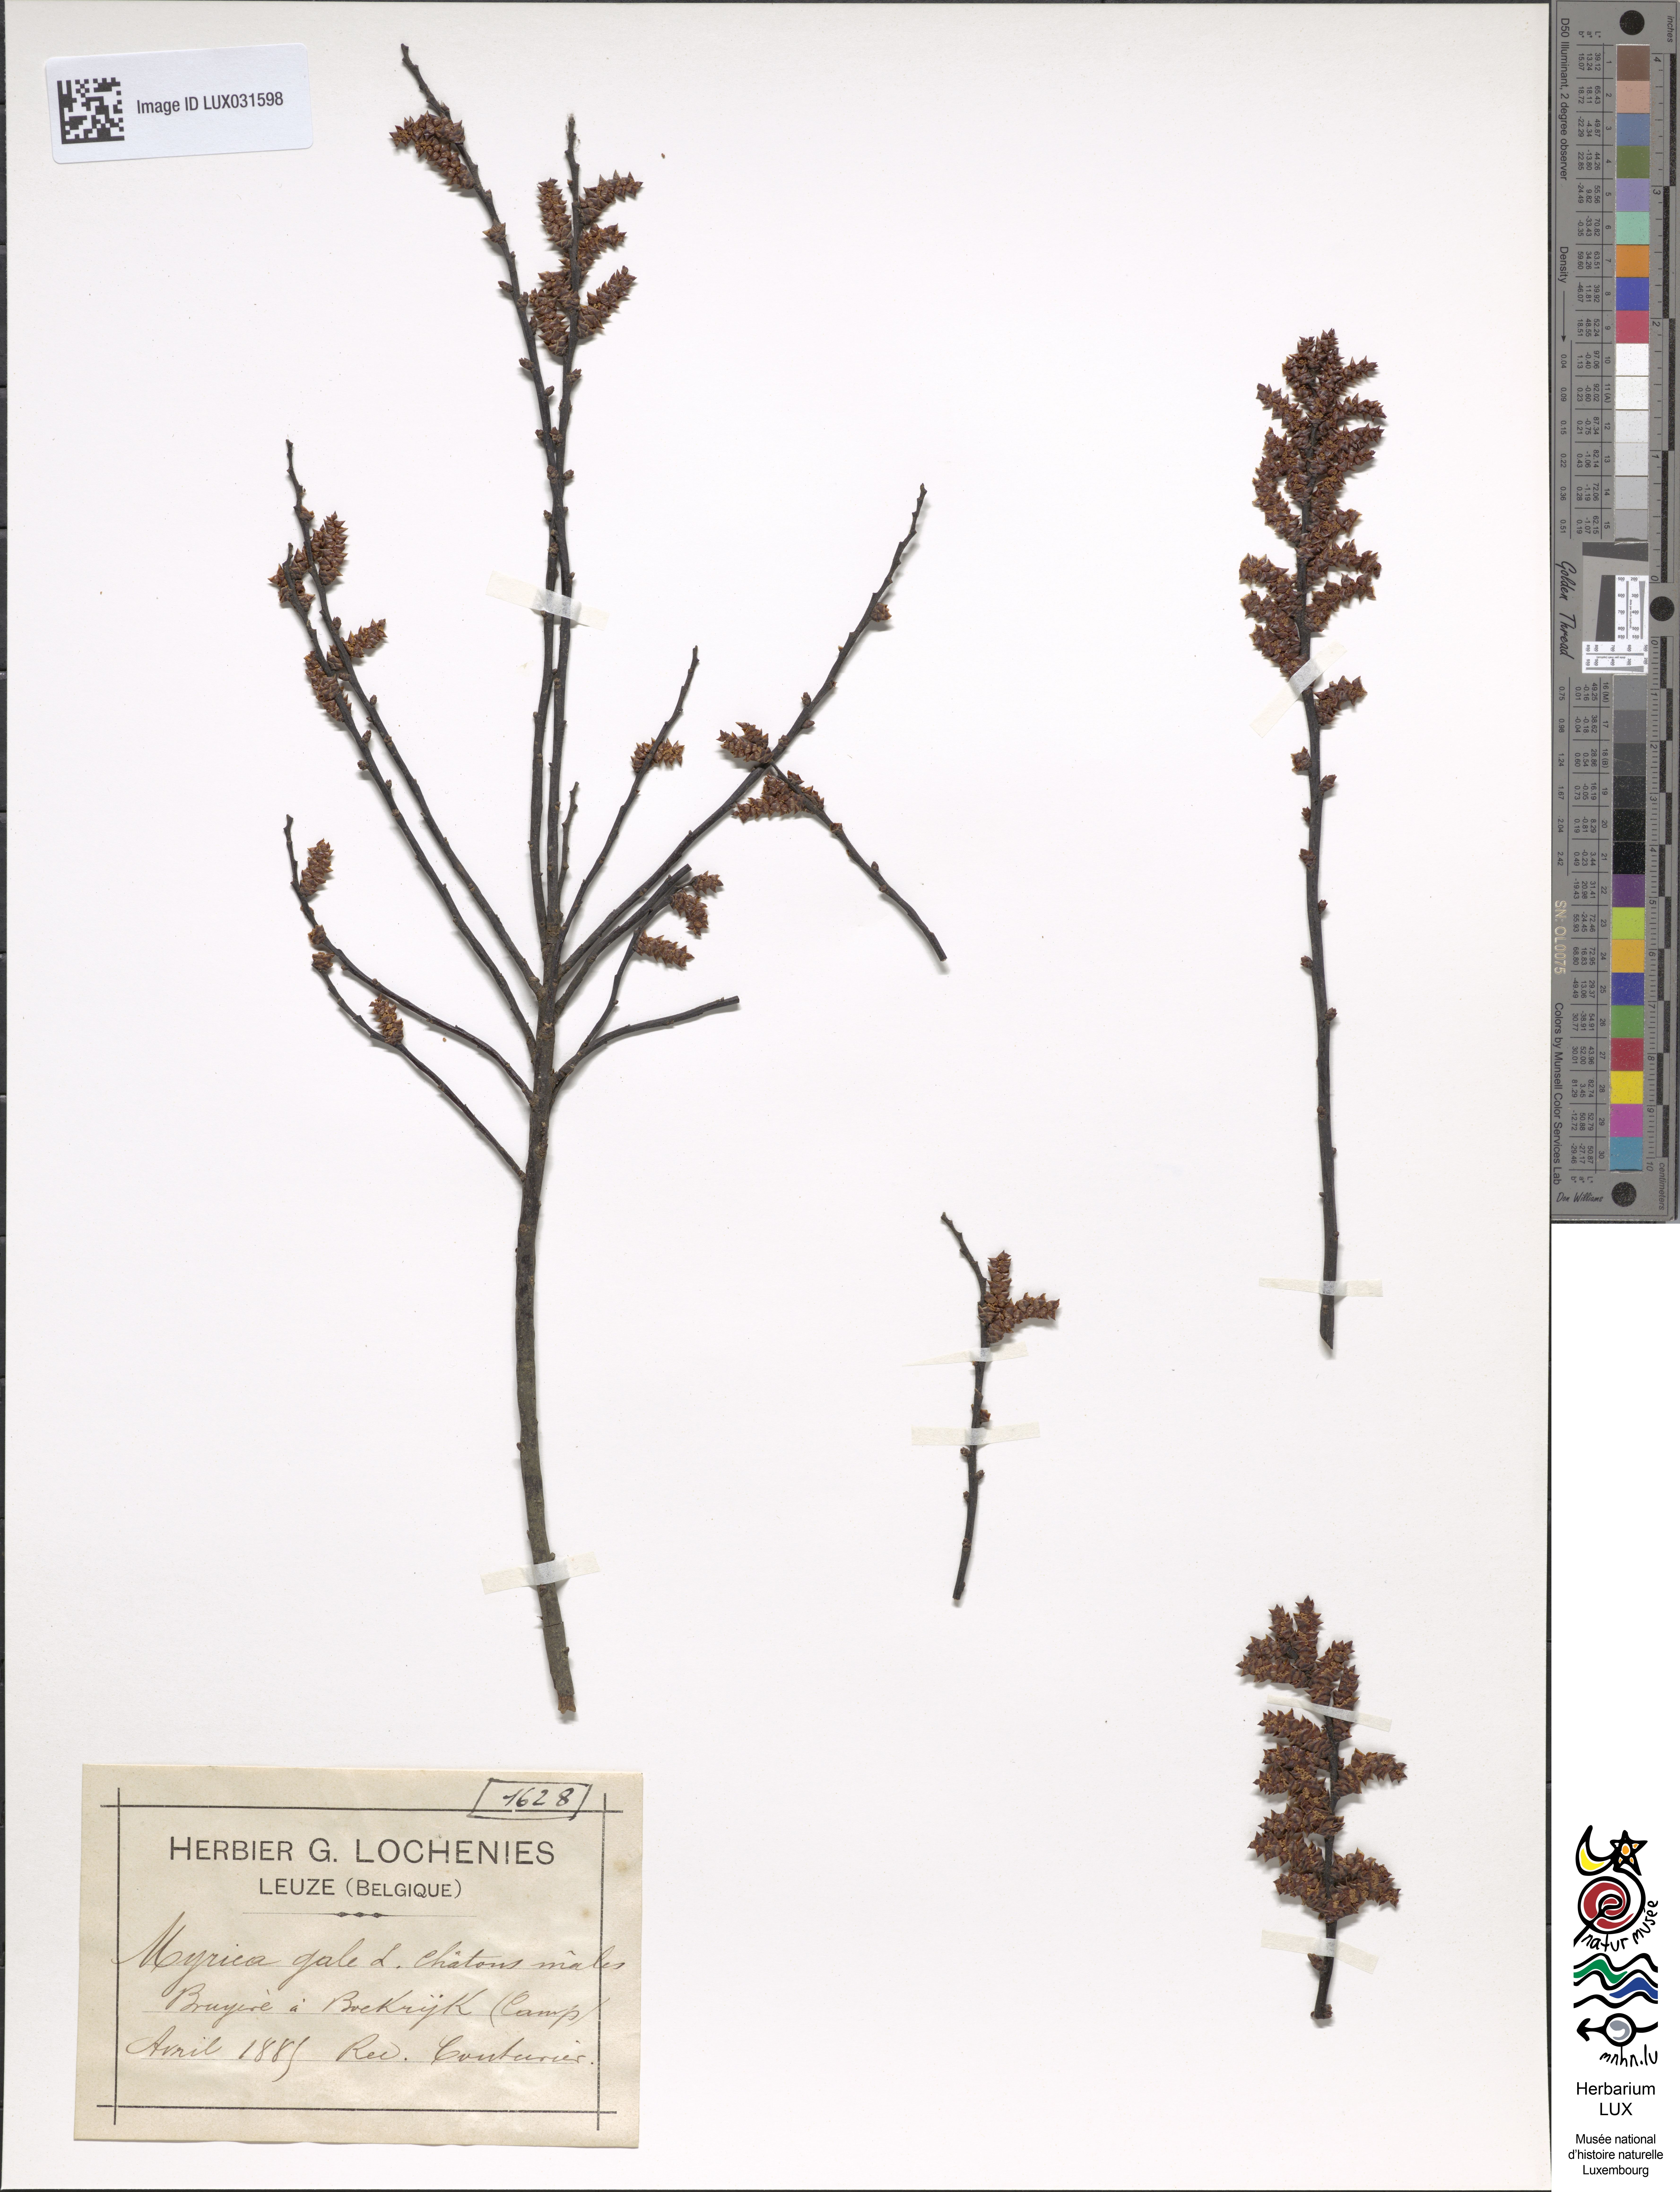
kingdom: Plantae
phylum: Tracheophyta
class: Magnoliopsida
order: Fagales
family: Myricaceae
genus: Myrica
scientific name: Myrica gale
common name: Sweet gale
